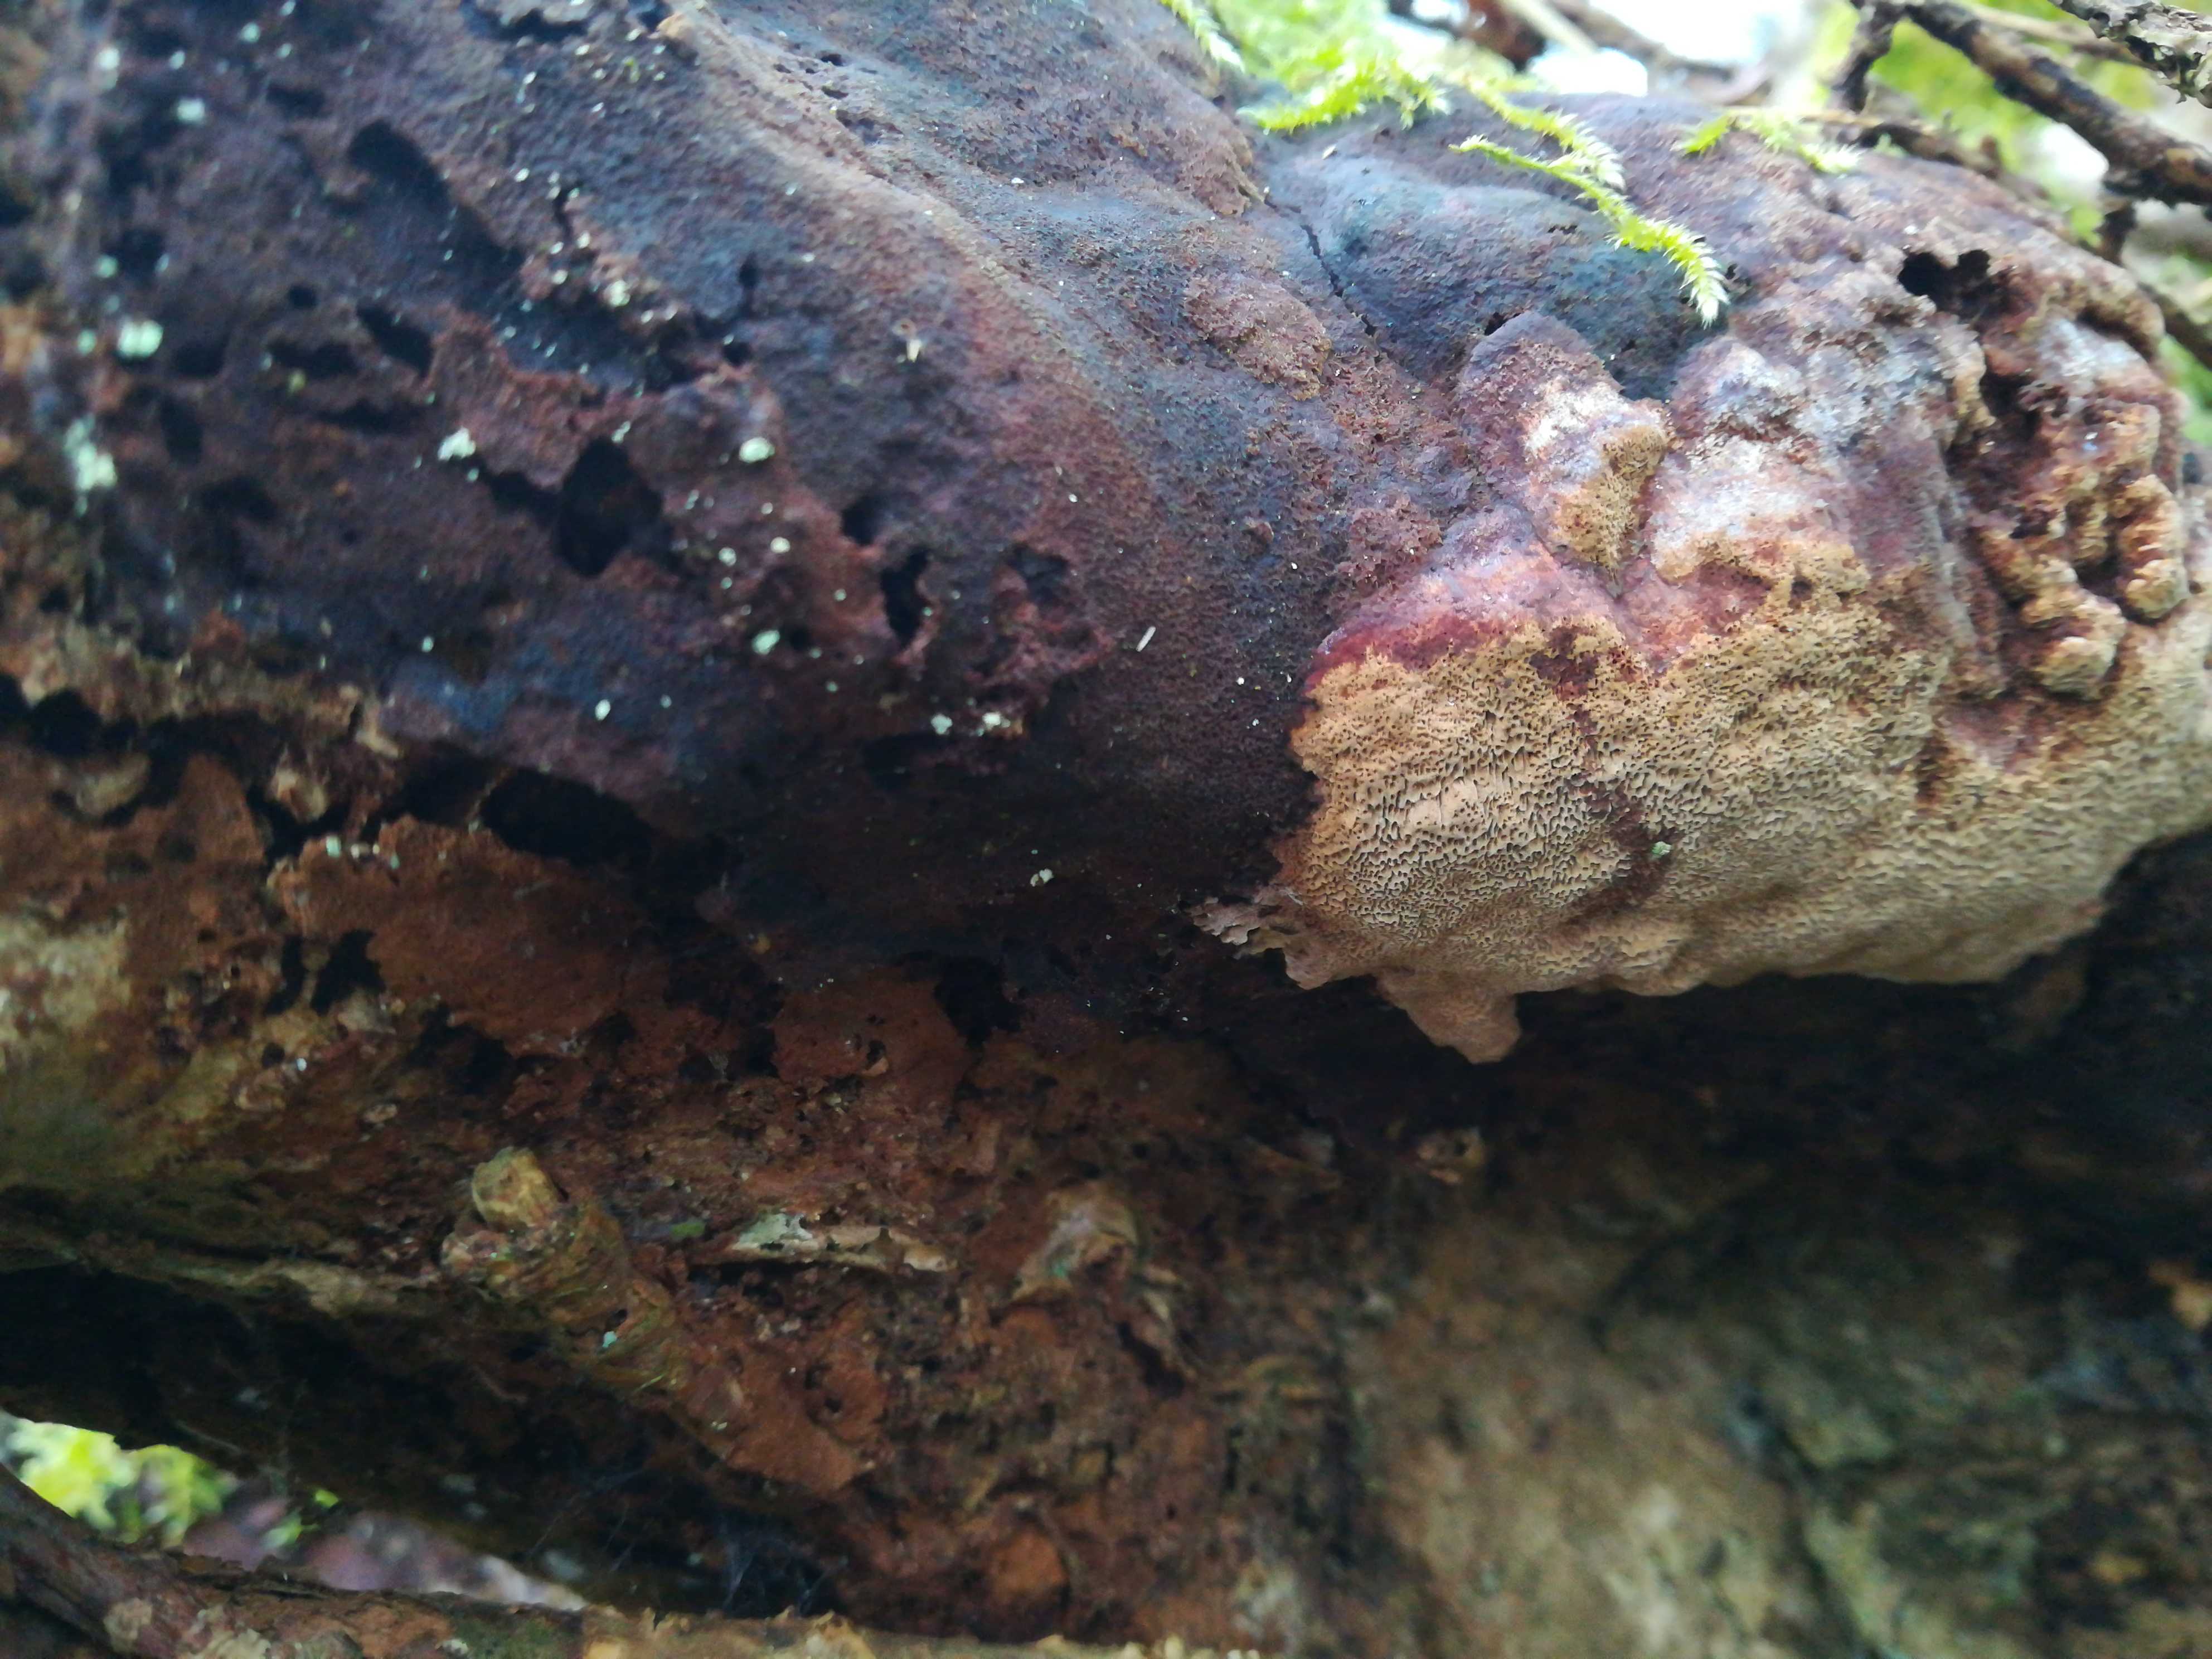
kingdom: Fungi
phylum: Basidiomycota
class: Agaricomycetes
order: Hymenochaetales
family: Hymenochaetaceae
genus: Fuscoporia
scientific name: Fuscoporia ferrea
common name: skorpe-ildporesvamp
